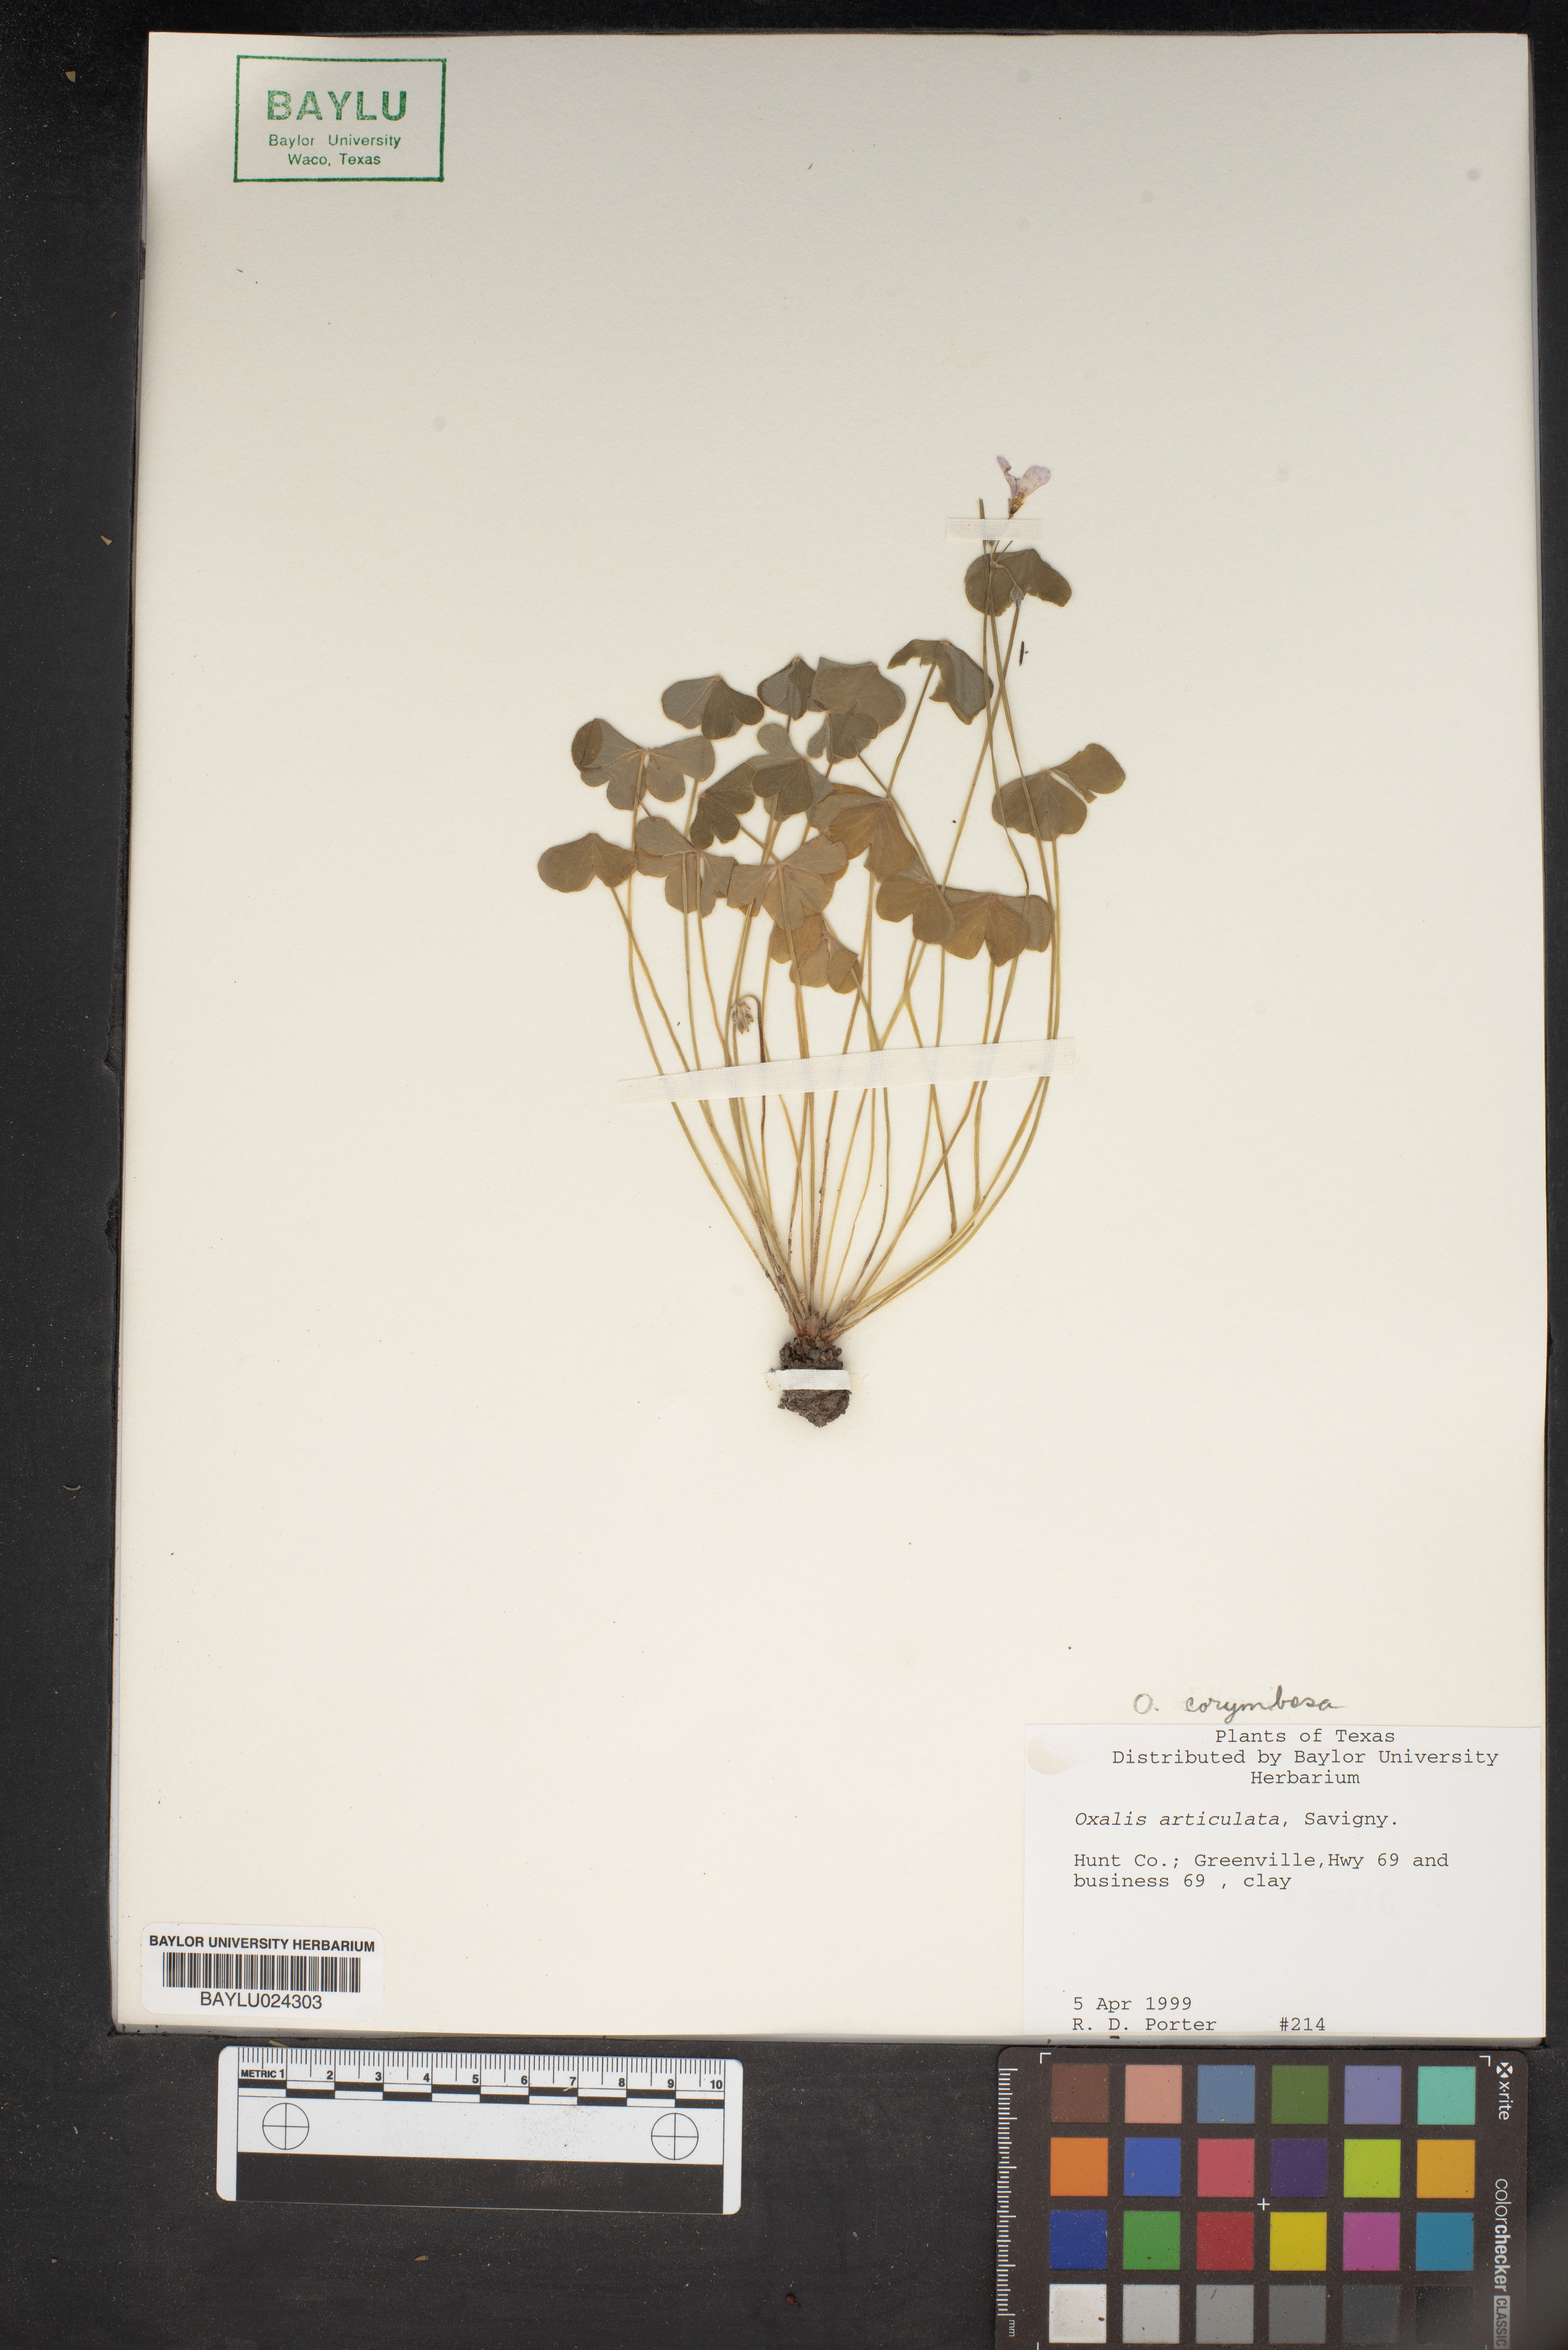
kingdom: Plantae
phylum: Tracheophyta
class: Magnoliopsida
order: Oxalidales
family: Oxalidaceae
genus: Oxalis
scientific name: Oxalis articulata
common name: Pink-sorrel
